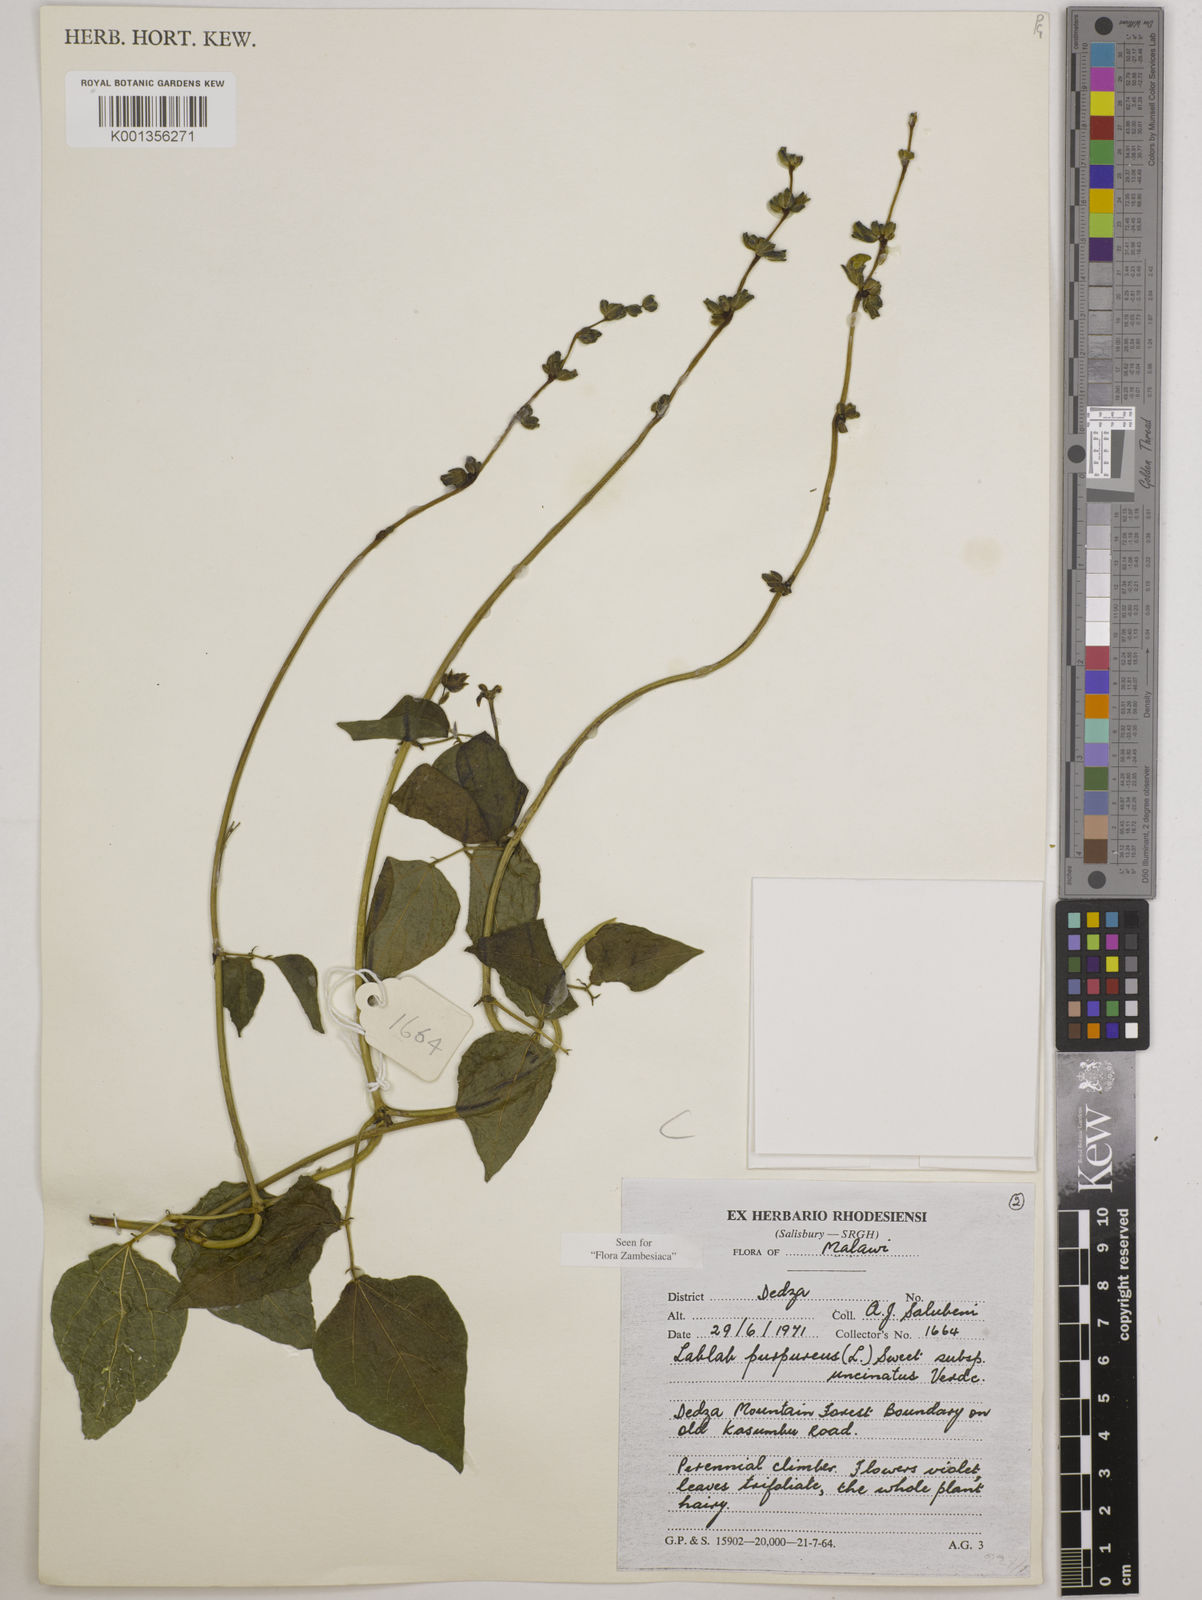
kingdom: Plantae
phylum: Tracheophyta
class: Magnoliopsida
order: Fabales
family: Fabaceae
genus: Lablab
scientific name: Lablab purpureus
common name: Lablab-bean
